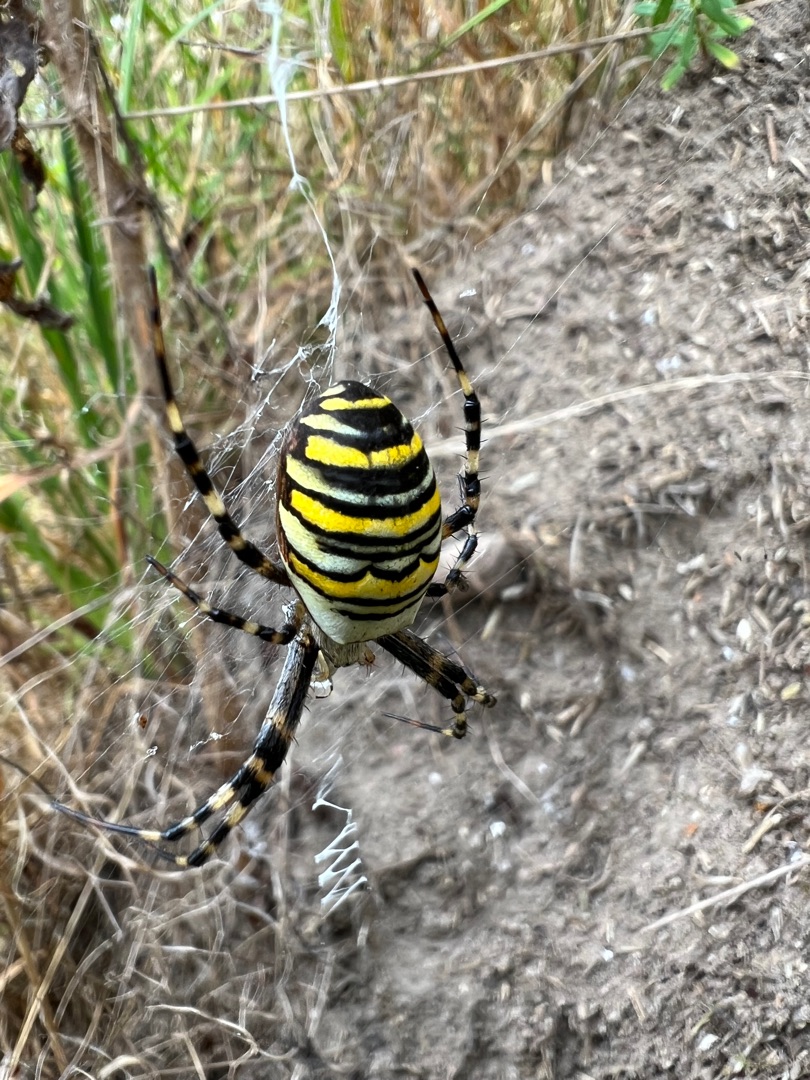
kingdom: Animalia
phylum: Arthropoda
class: Arachnida
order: Araneae
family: Araneidae
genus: Argiope
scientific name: Argiope bruennichi
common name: Hvepseedderkop
